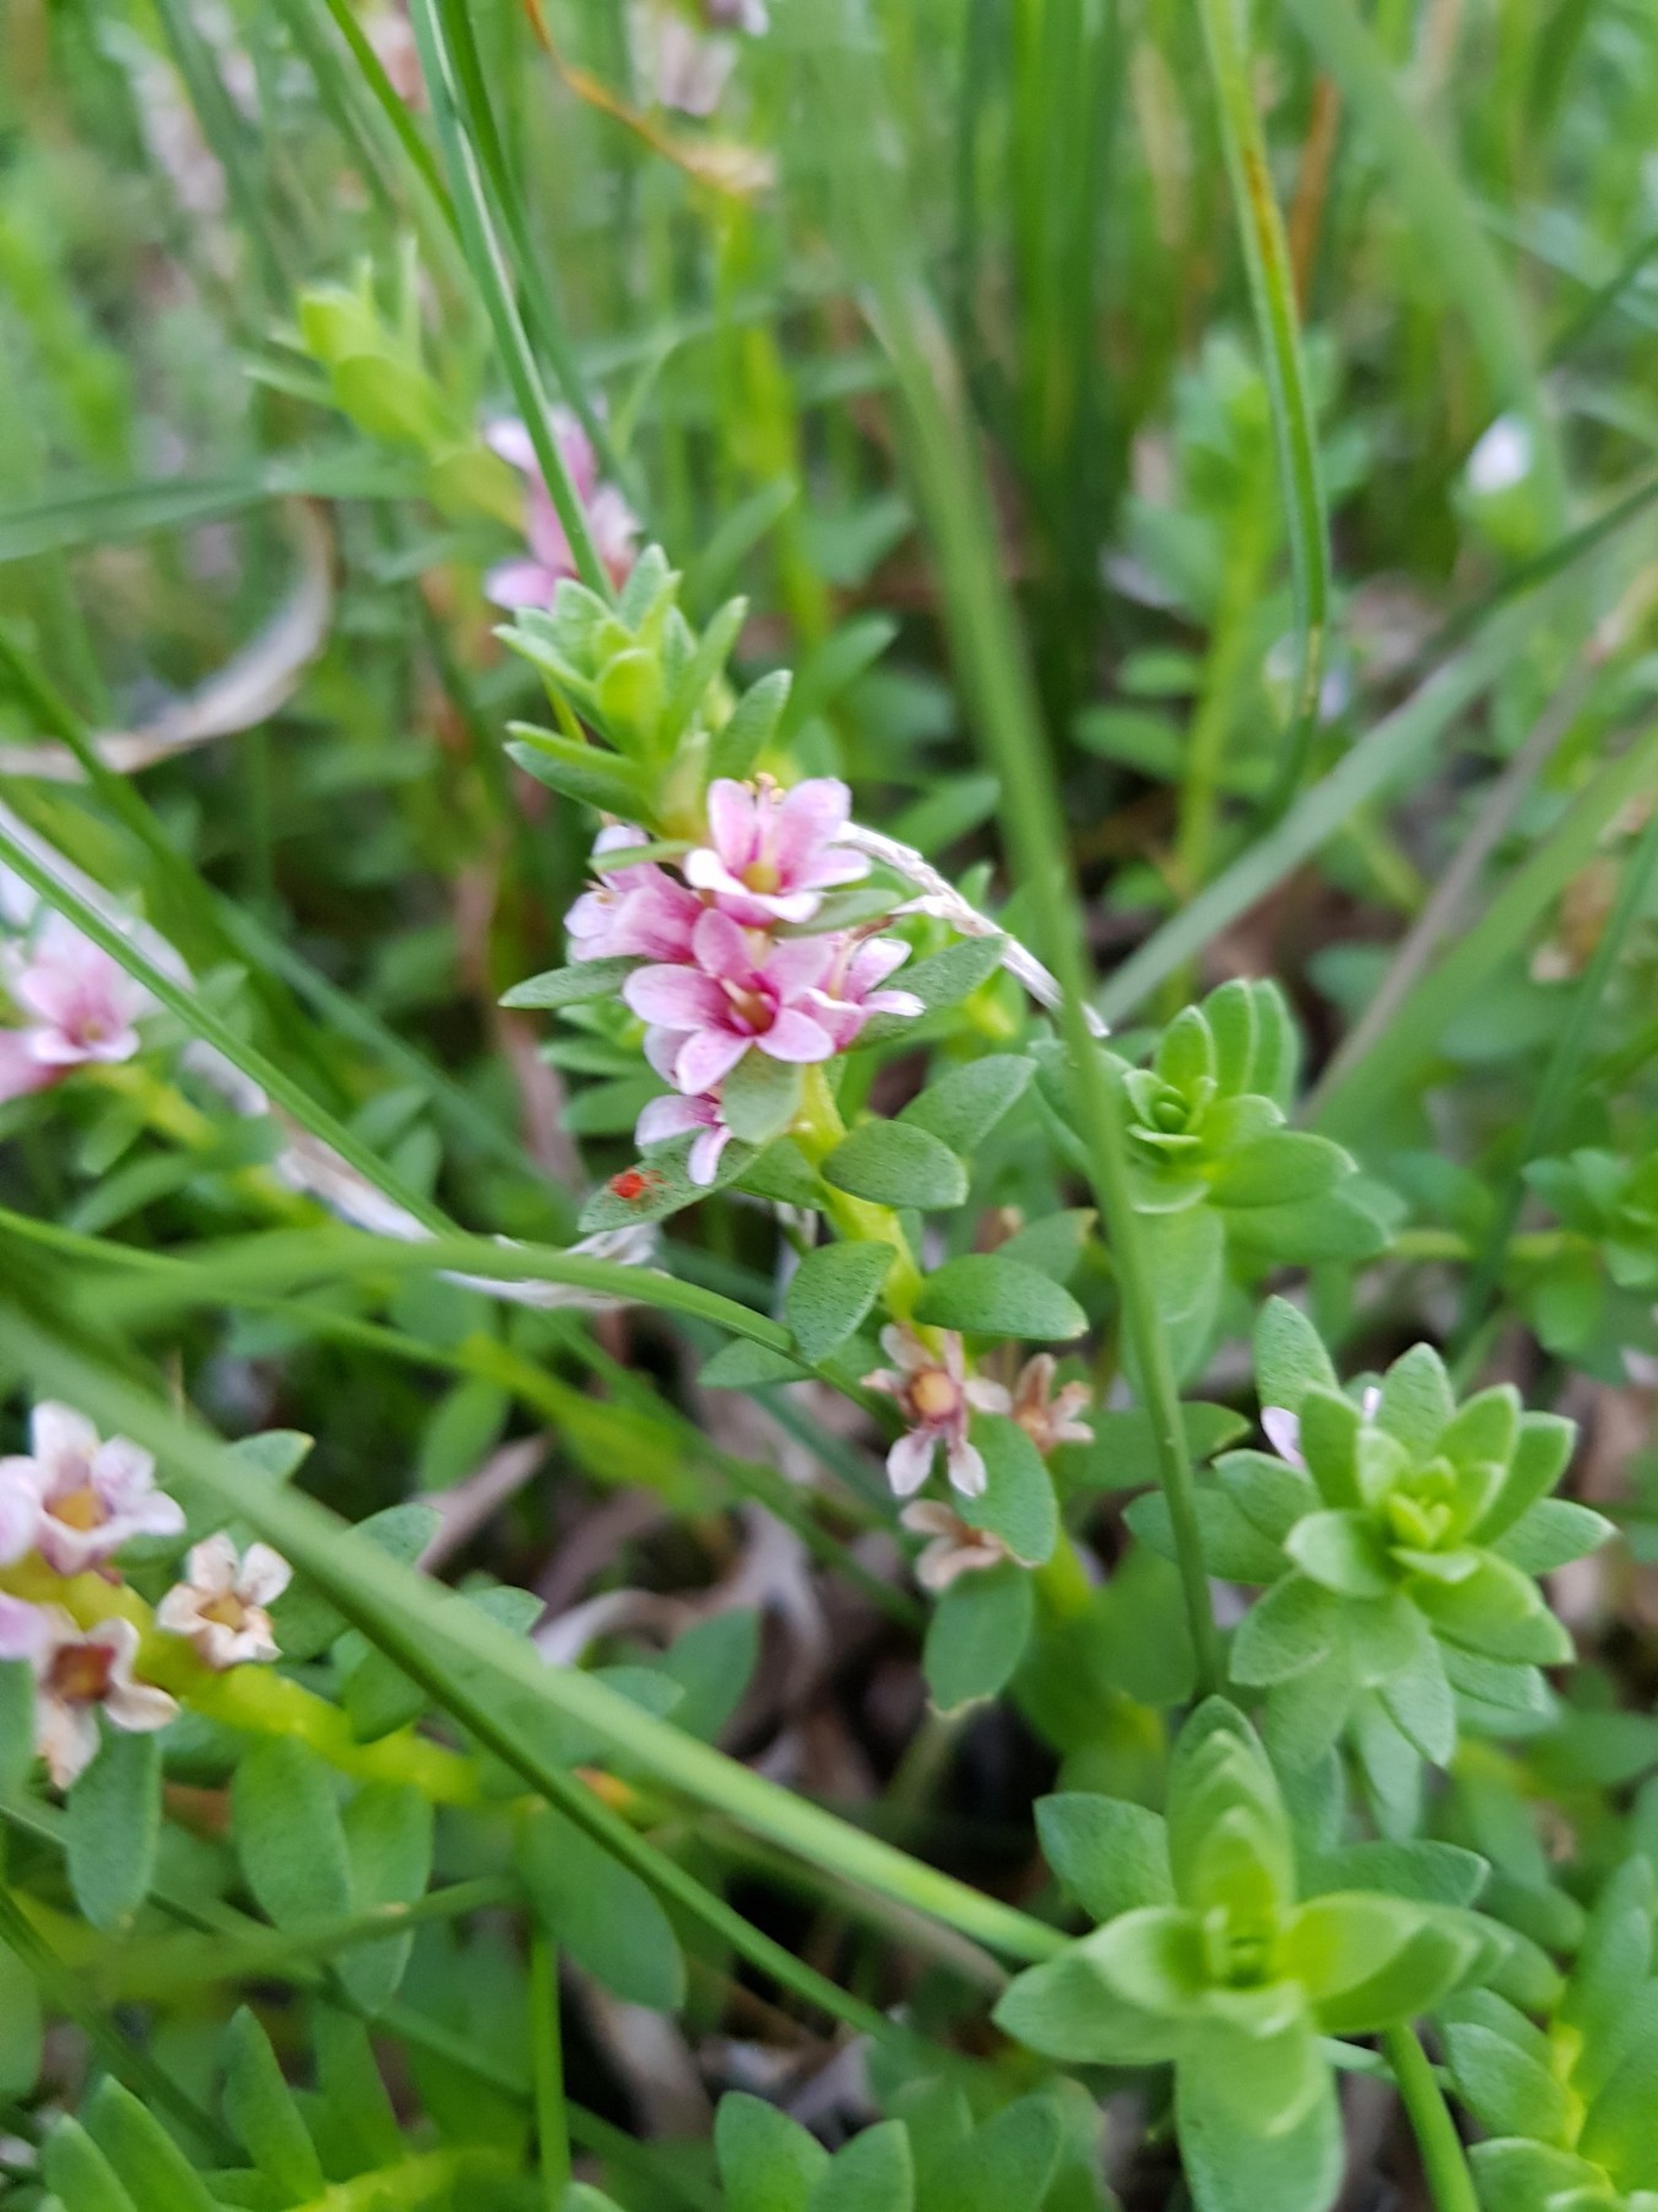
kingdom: Plantae
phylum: Tracheophyta
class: Magnoliopsida
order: Ericales
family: Primulaceae
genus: Lysimachia
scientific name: Lysimachia maritima
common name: Sandkryb
